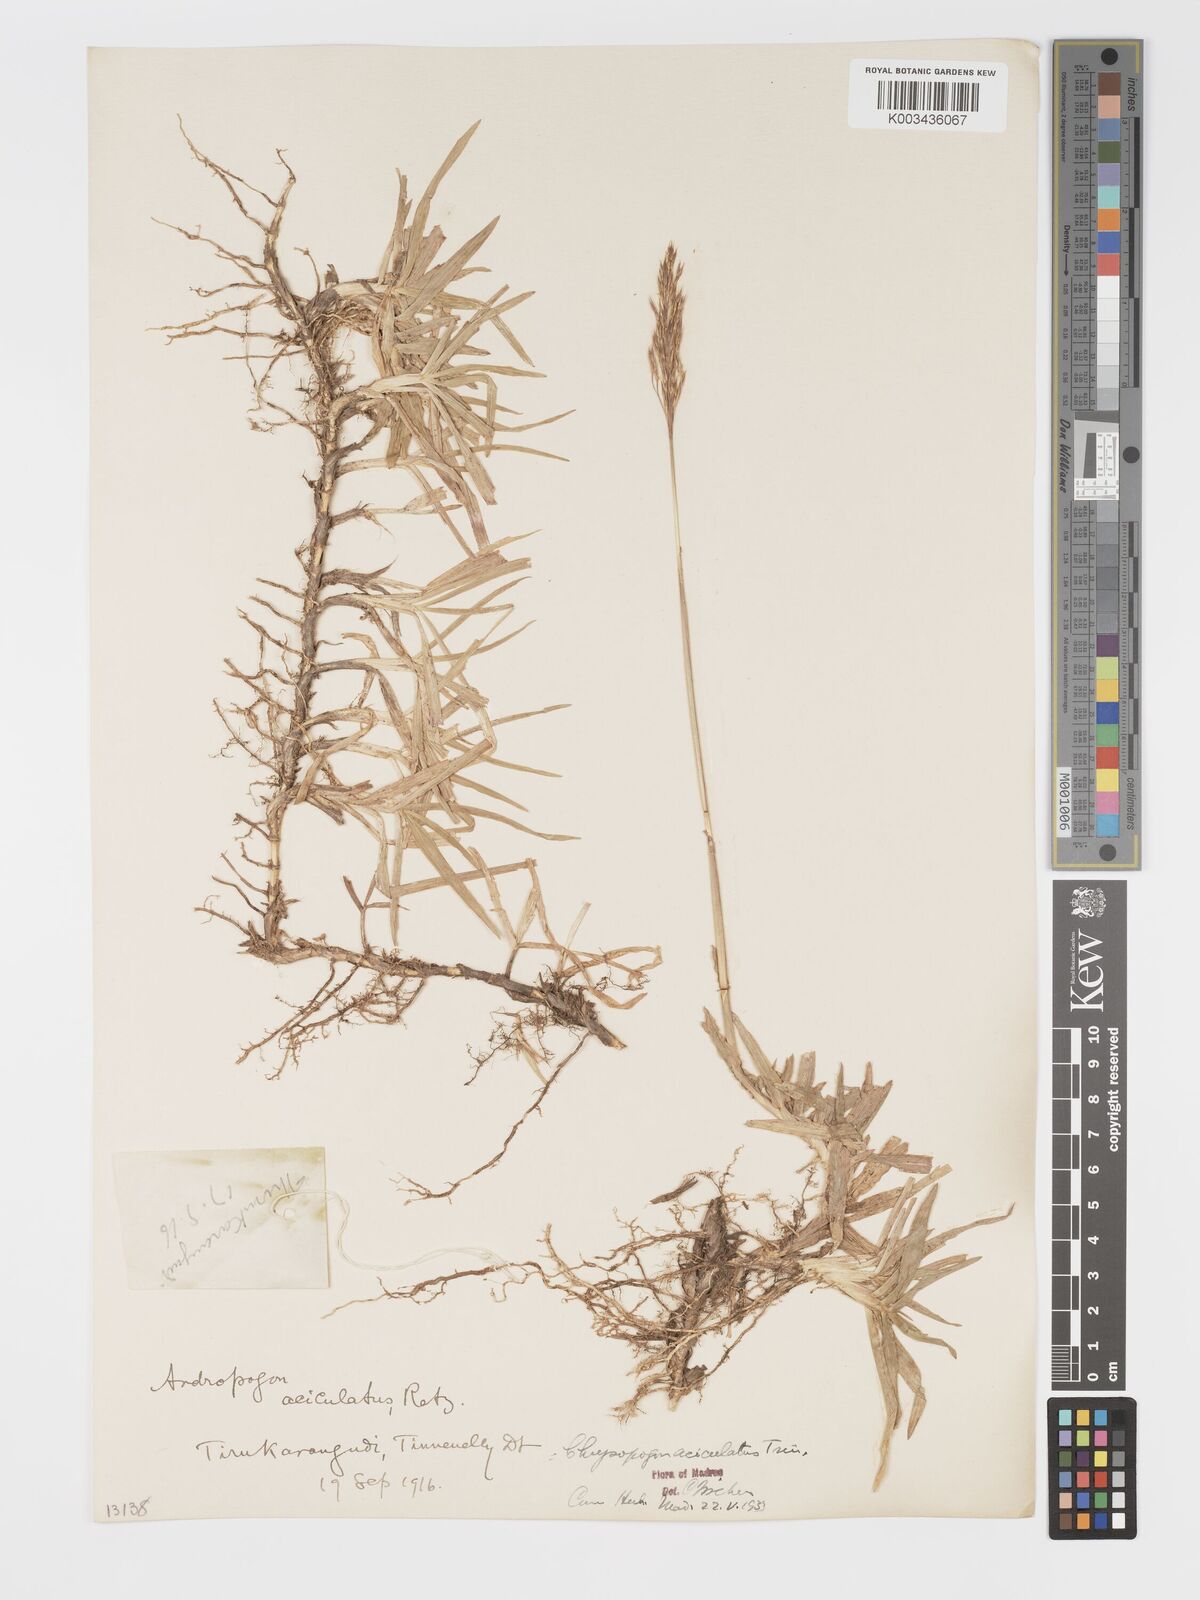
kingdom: Plantae
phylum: Tracheophyta
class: Liliopsida
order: Poales
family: Poaceae
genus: Chrysopogon
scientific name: Chrysopogon aciculatus
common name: Pilipiliula
